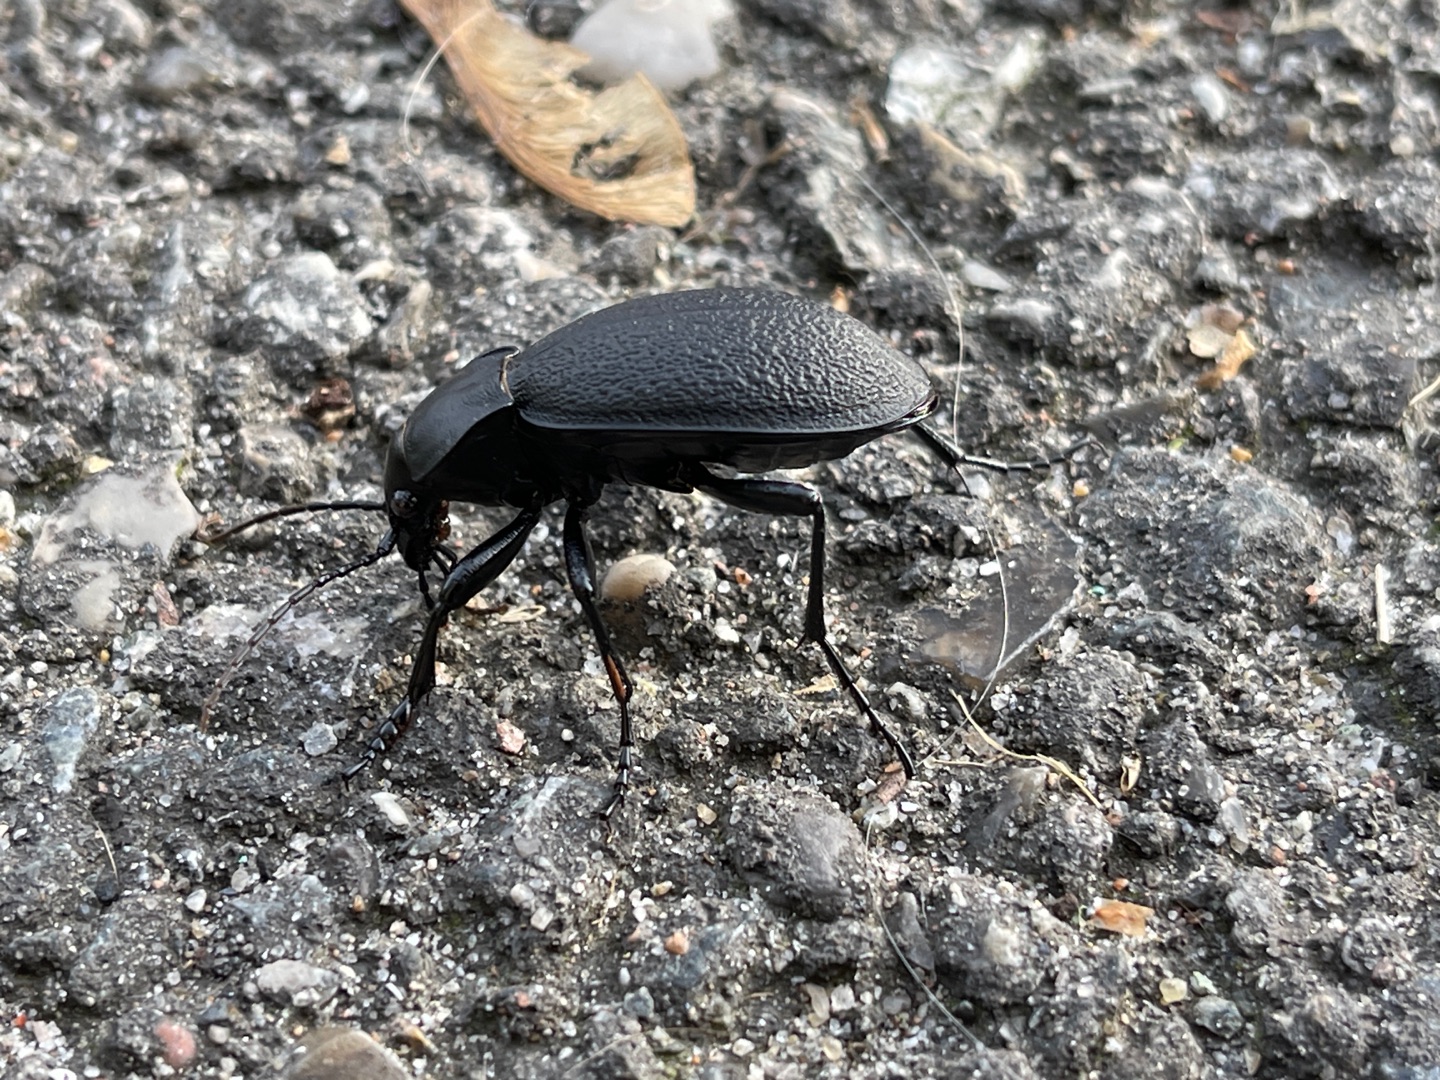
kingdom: Animalia
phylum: Arthropoda
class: Insecta
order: Coleoptera
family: Carabidae
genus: Carabus
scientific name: Carabus coriaceus
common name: Læderløber
